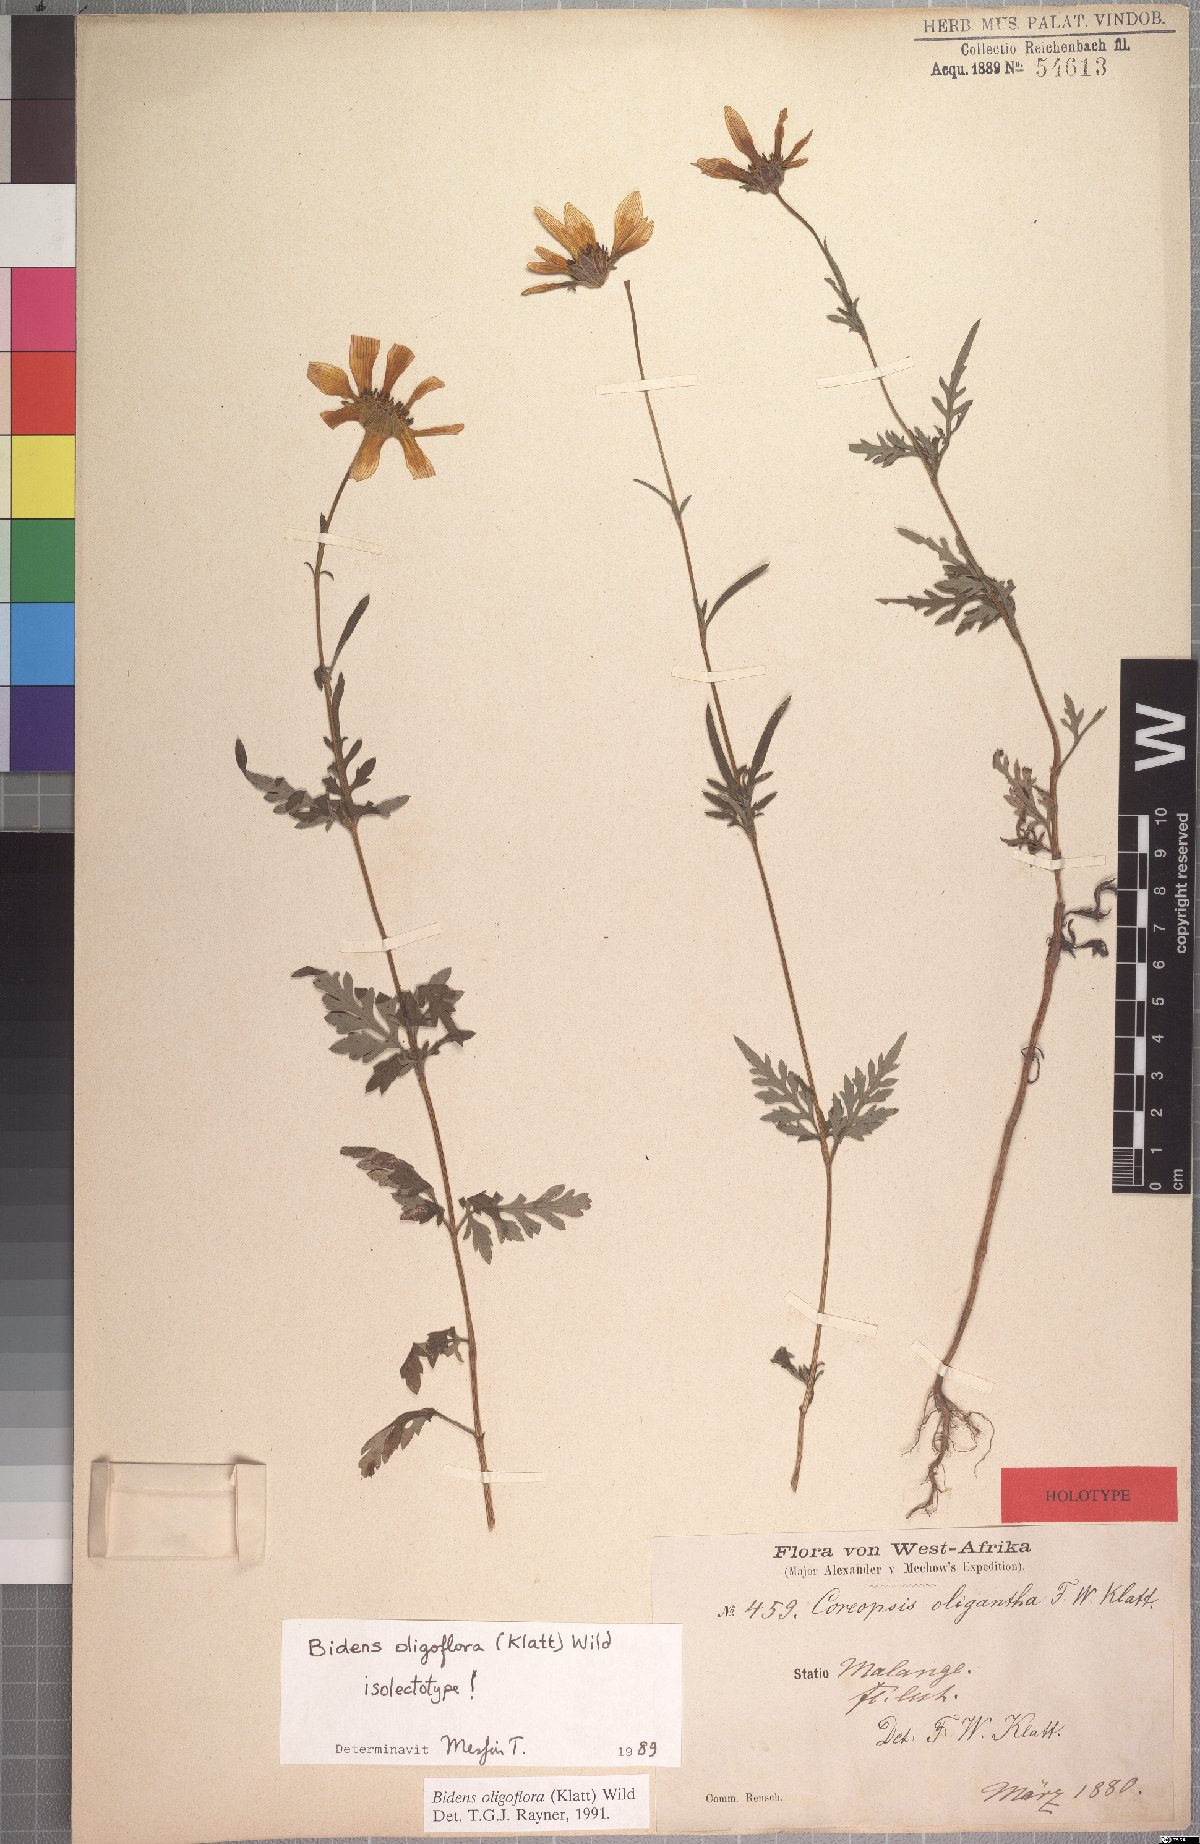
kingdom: Plantae
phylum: Tracheophyta
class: Magnoliopsida
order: Asterales
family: Asteraceae
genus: Bidens
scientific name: Bidens oligoflora
